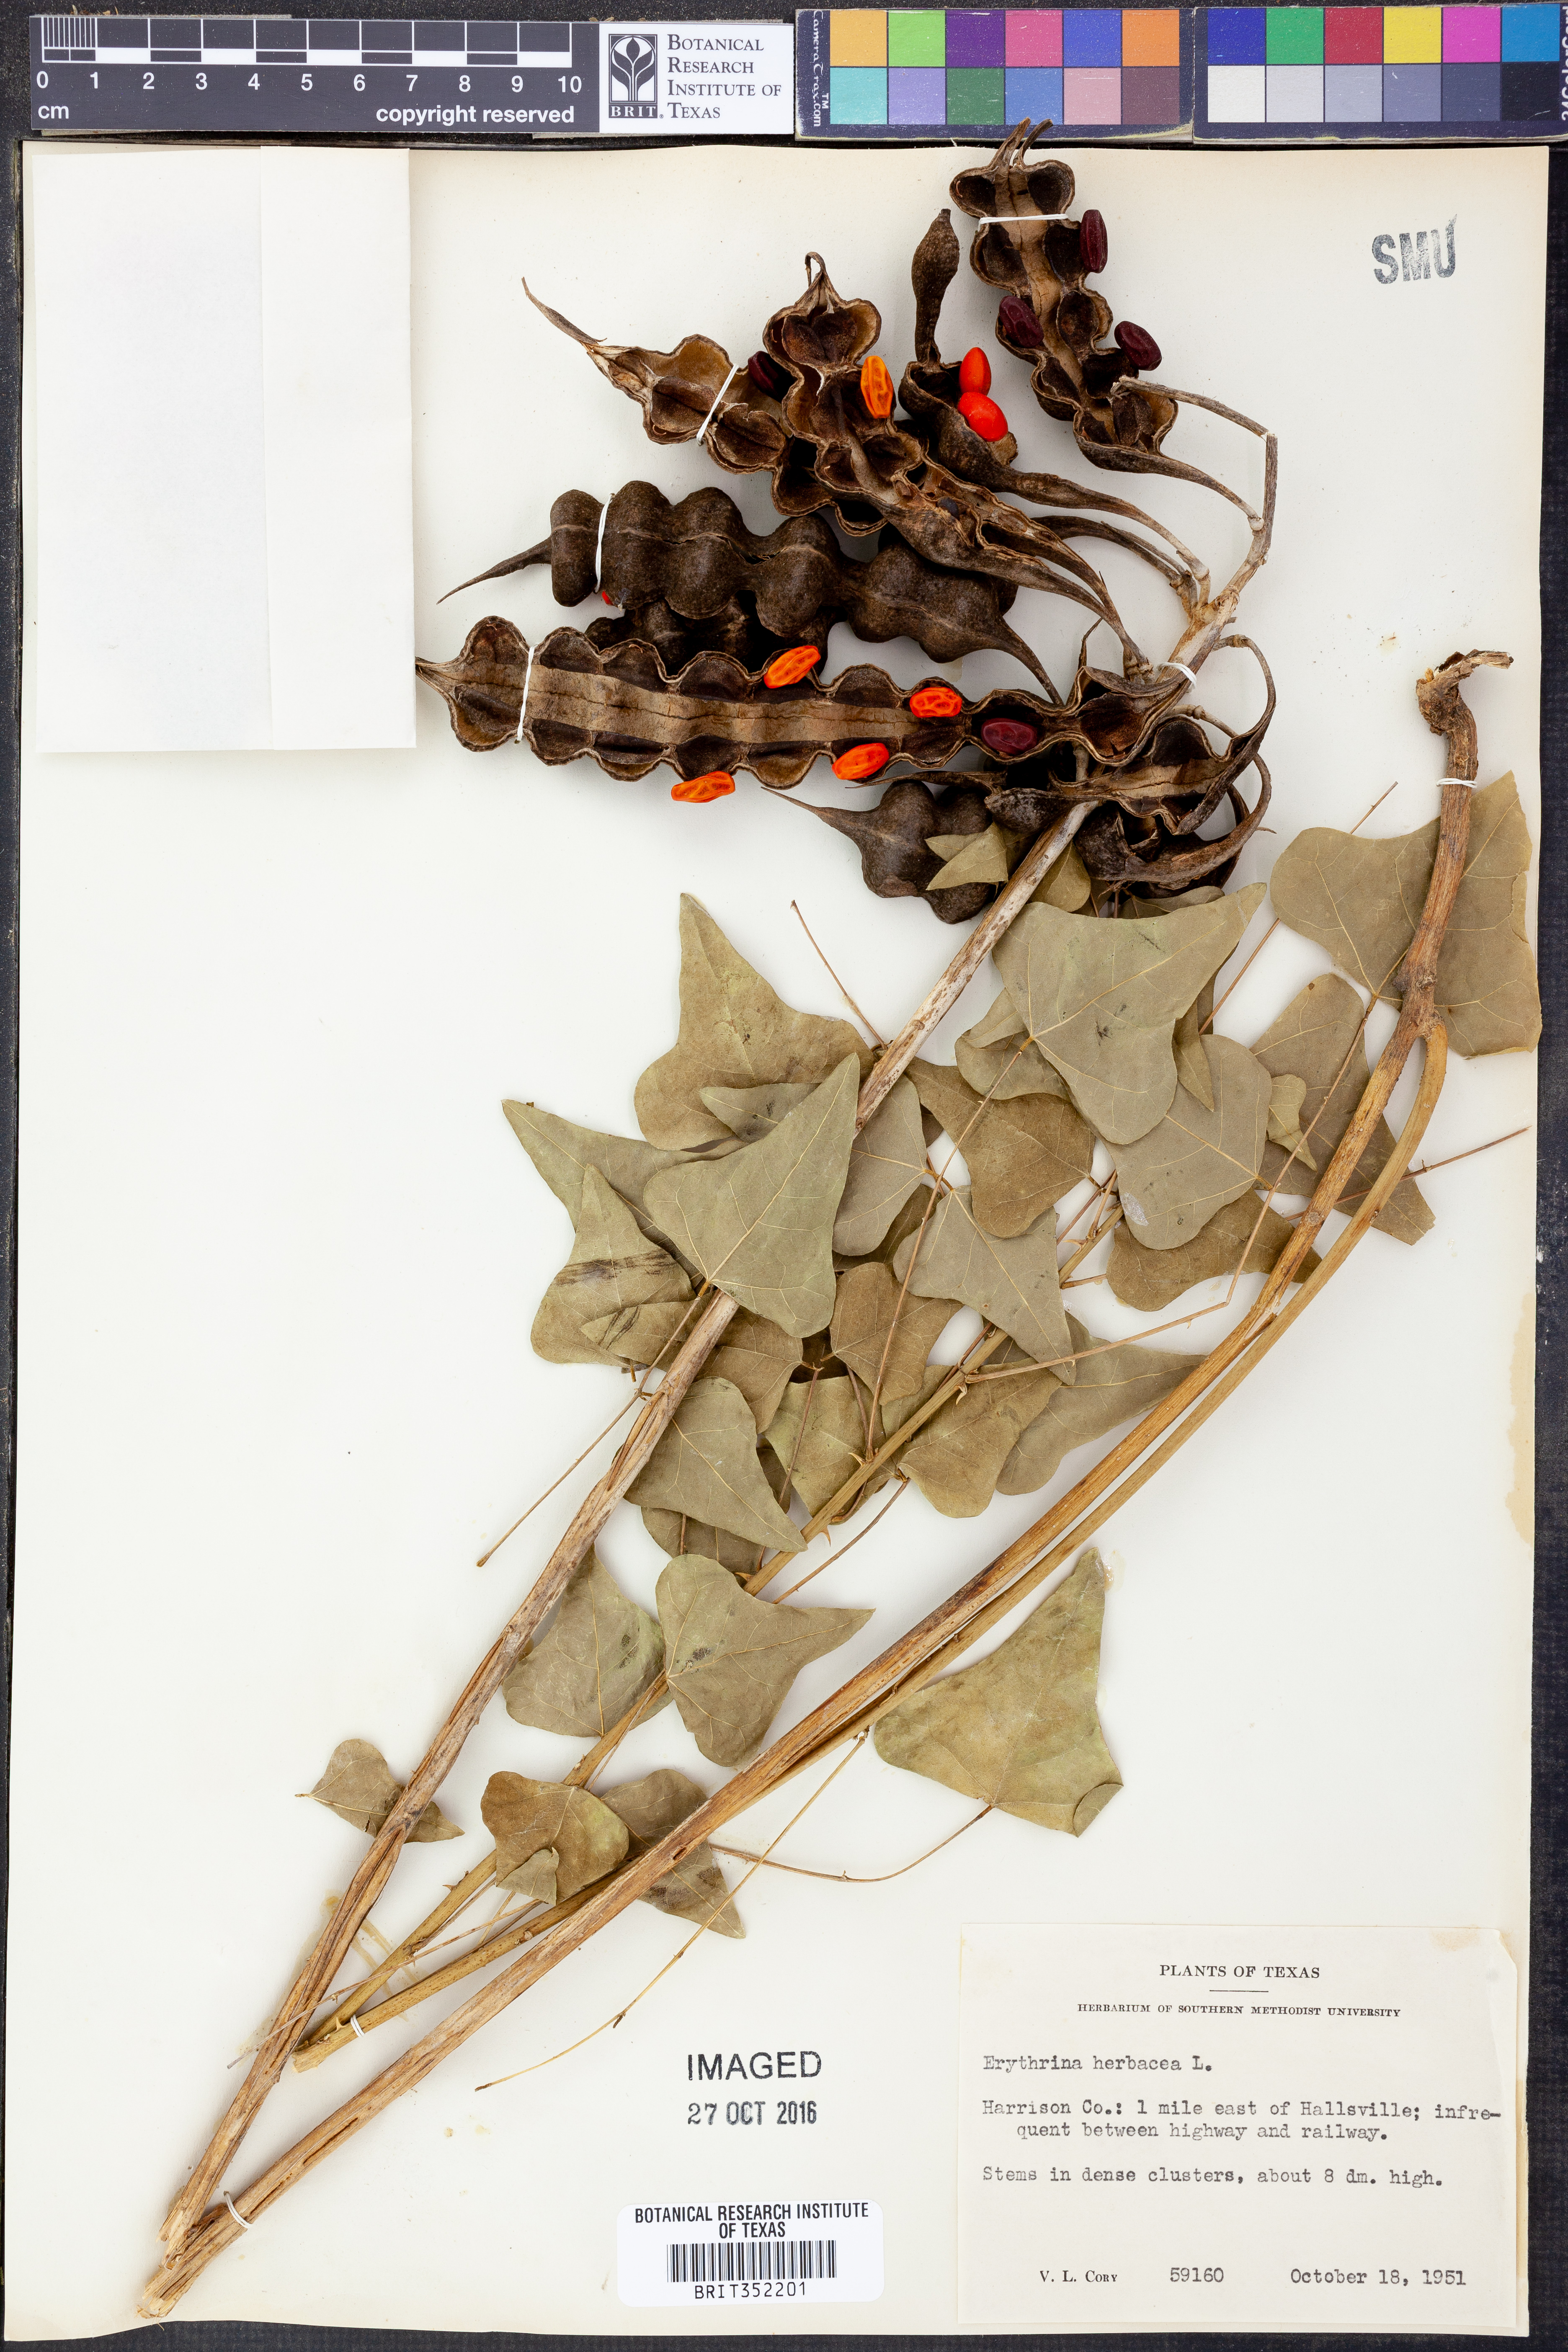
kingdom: Plantae
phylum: Tracheophyta
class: Magnoliopsida
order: Fabales
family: Fabaceae
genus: Erythrina
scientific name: Erythrina herbacea
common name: Coral-bean
